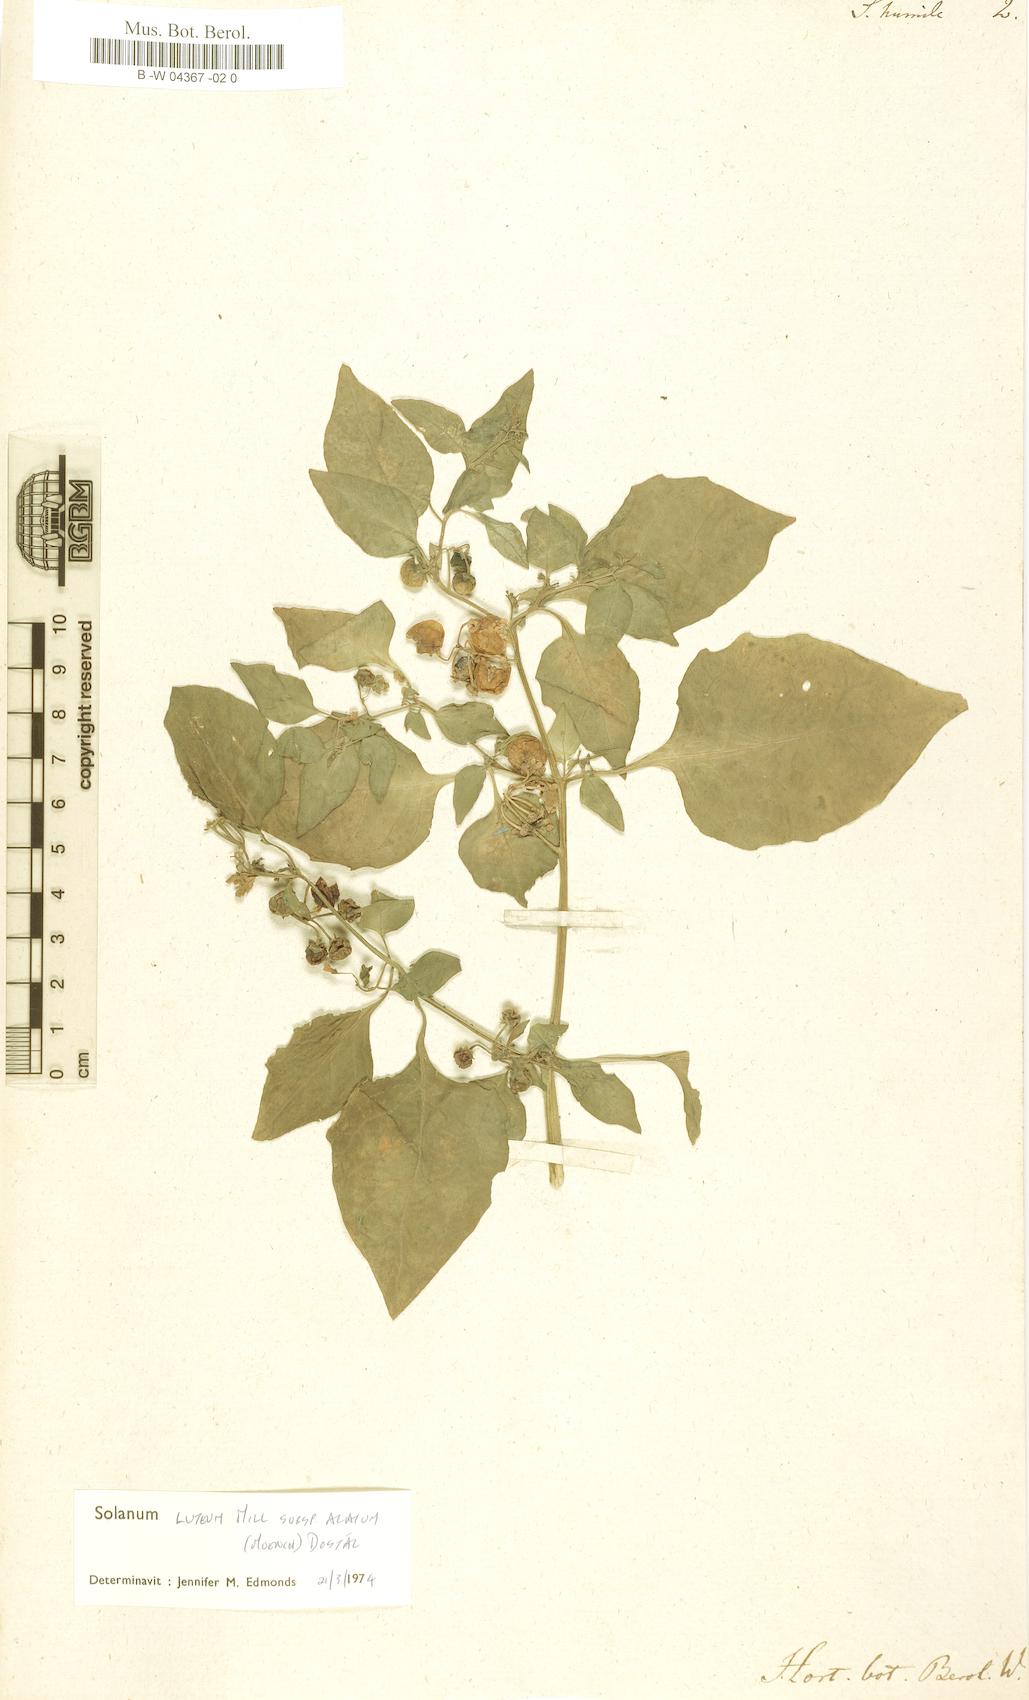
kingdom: Plantae
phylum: Tracheophyta
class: Magnoliopsida
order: Solanales
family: Solanaceae
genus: Solanum
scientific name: Solanum humile
